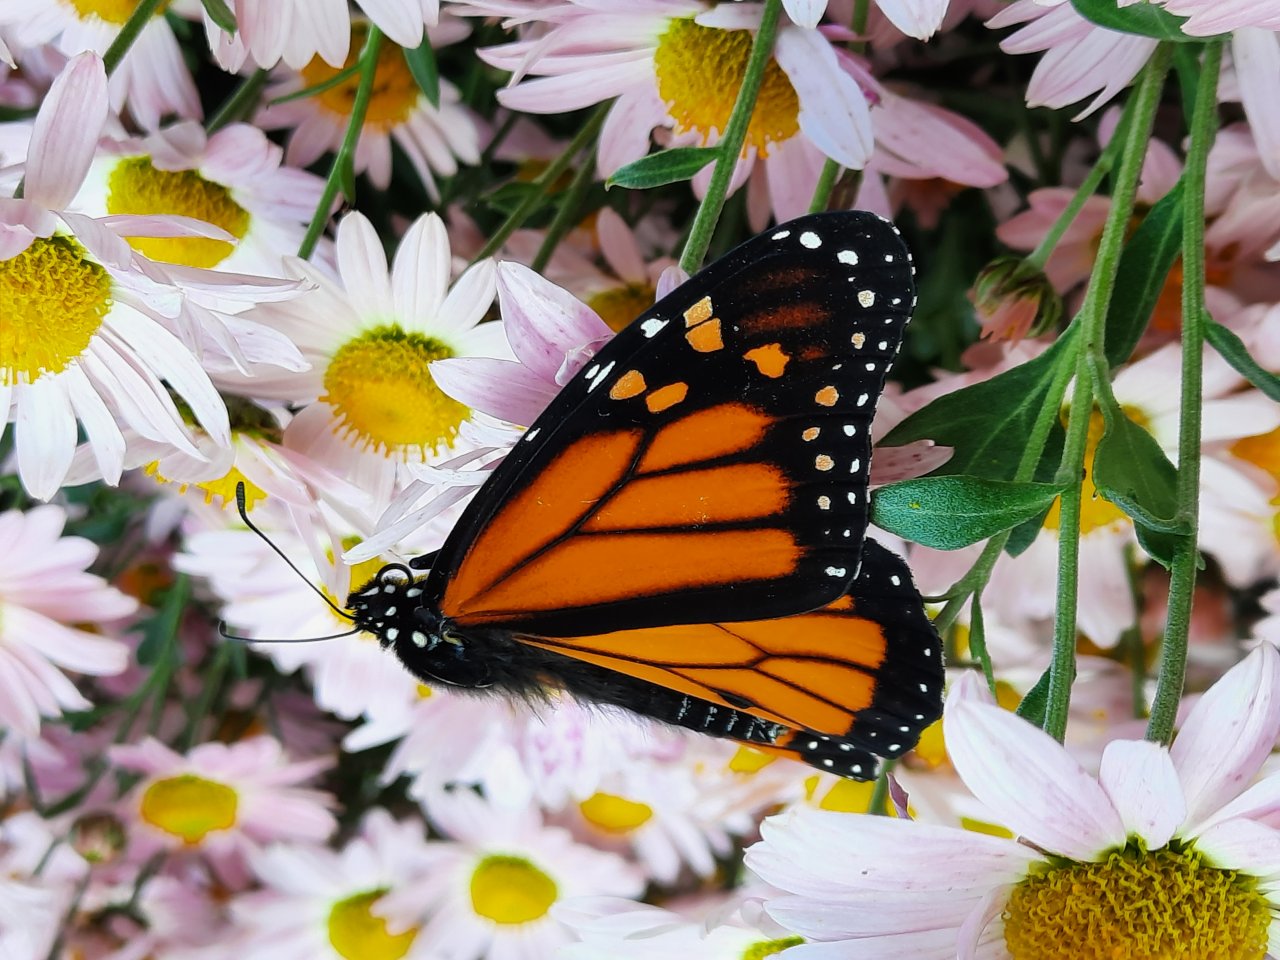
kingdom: Animalia
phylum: Arthropoda
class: Insecta
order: Lepidoptera
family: Nymphalidae
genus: Danaus
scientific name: Danaus plexippus
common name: Monarch
